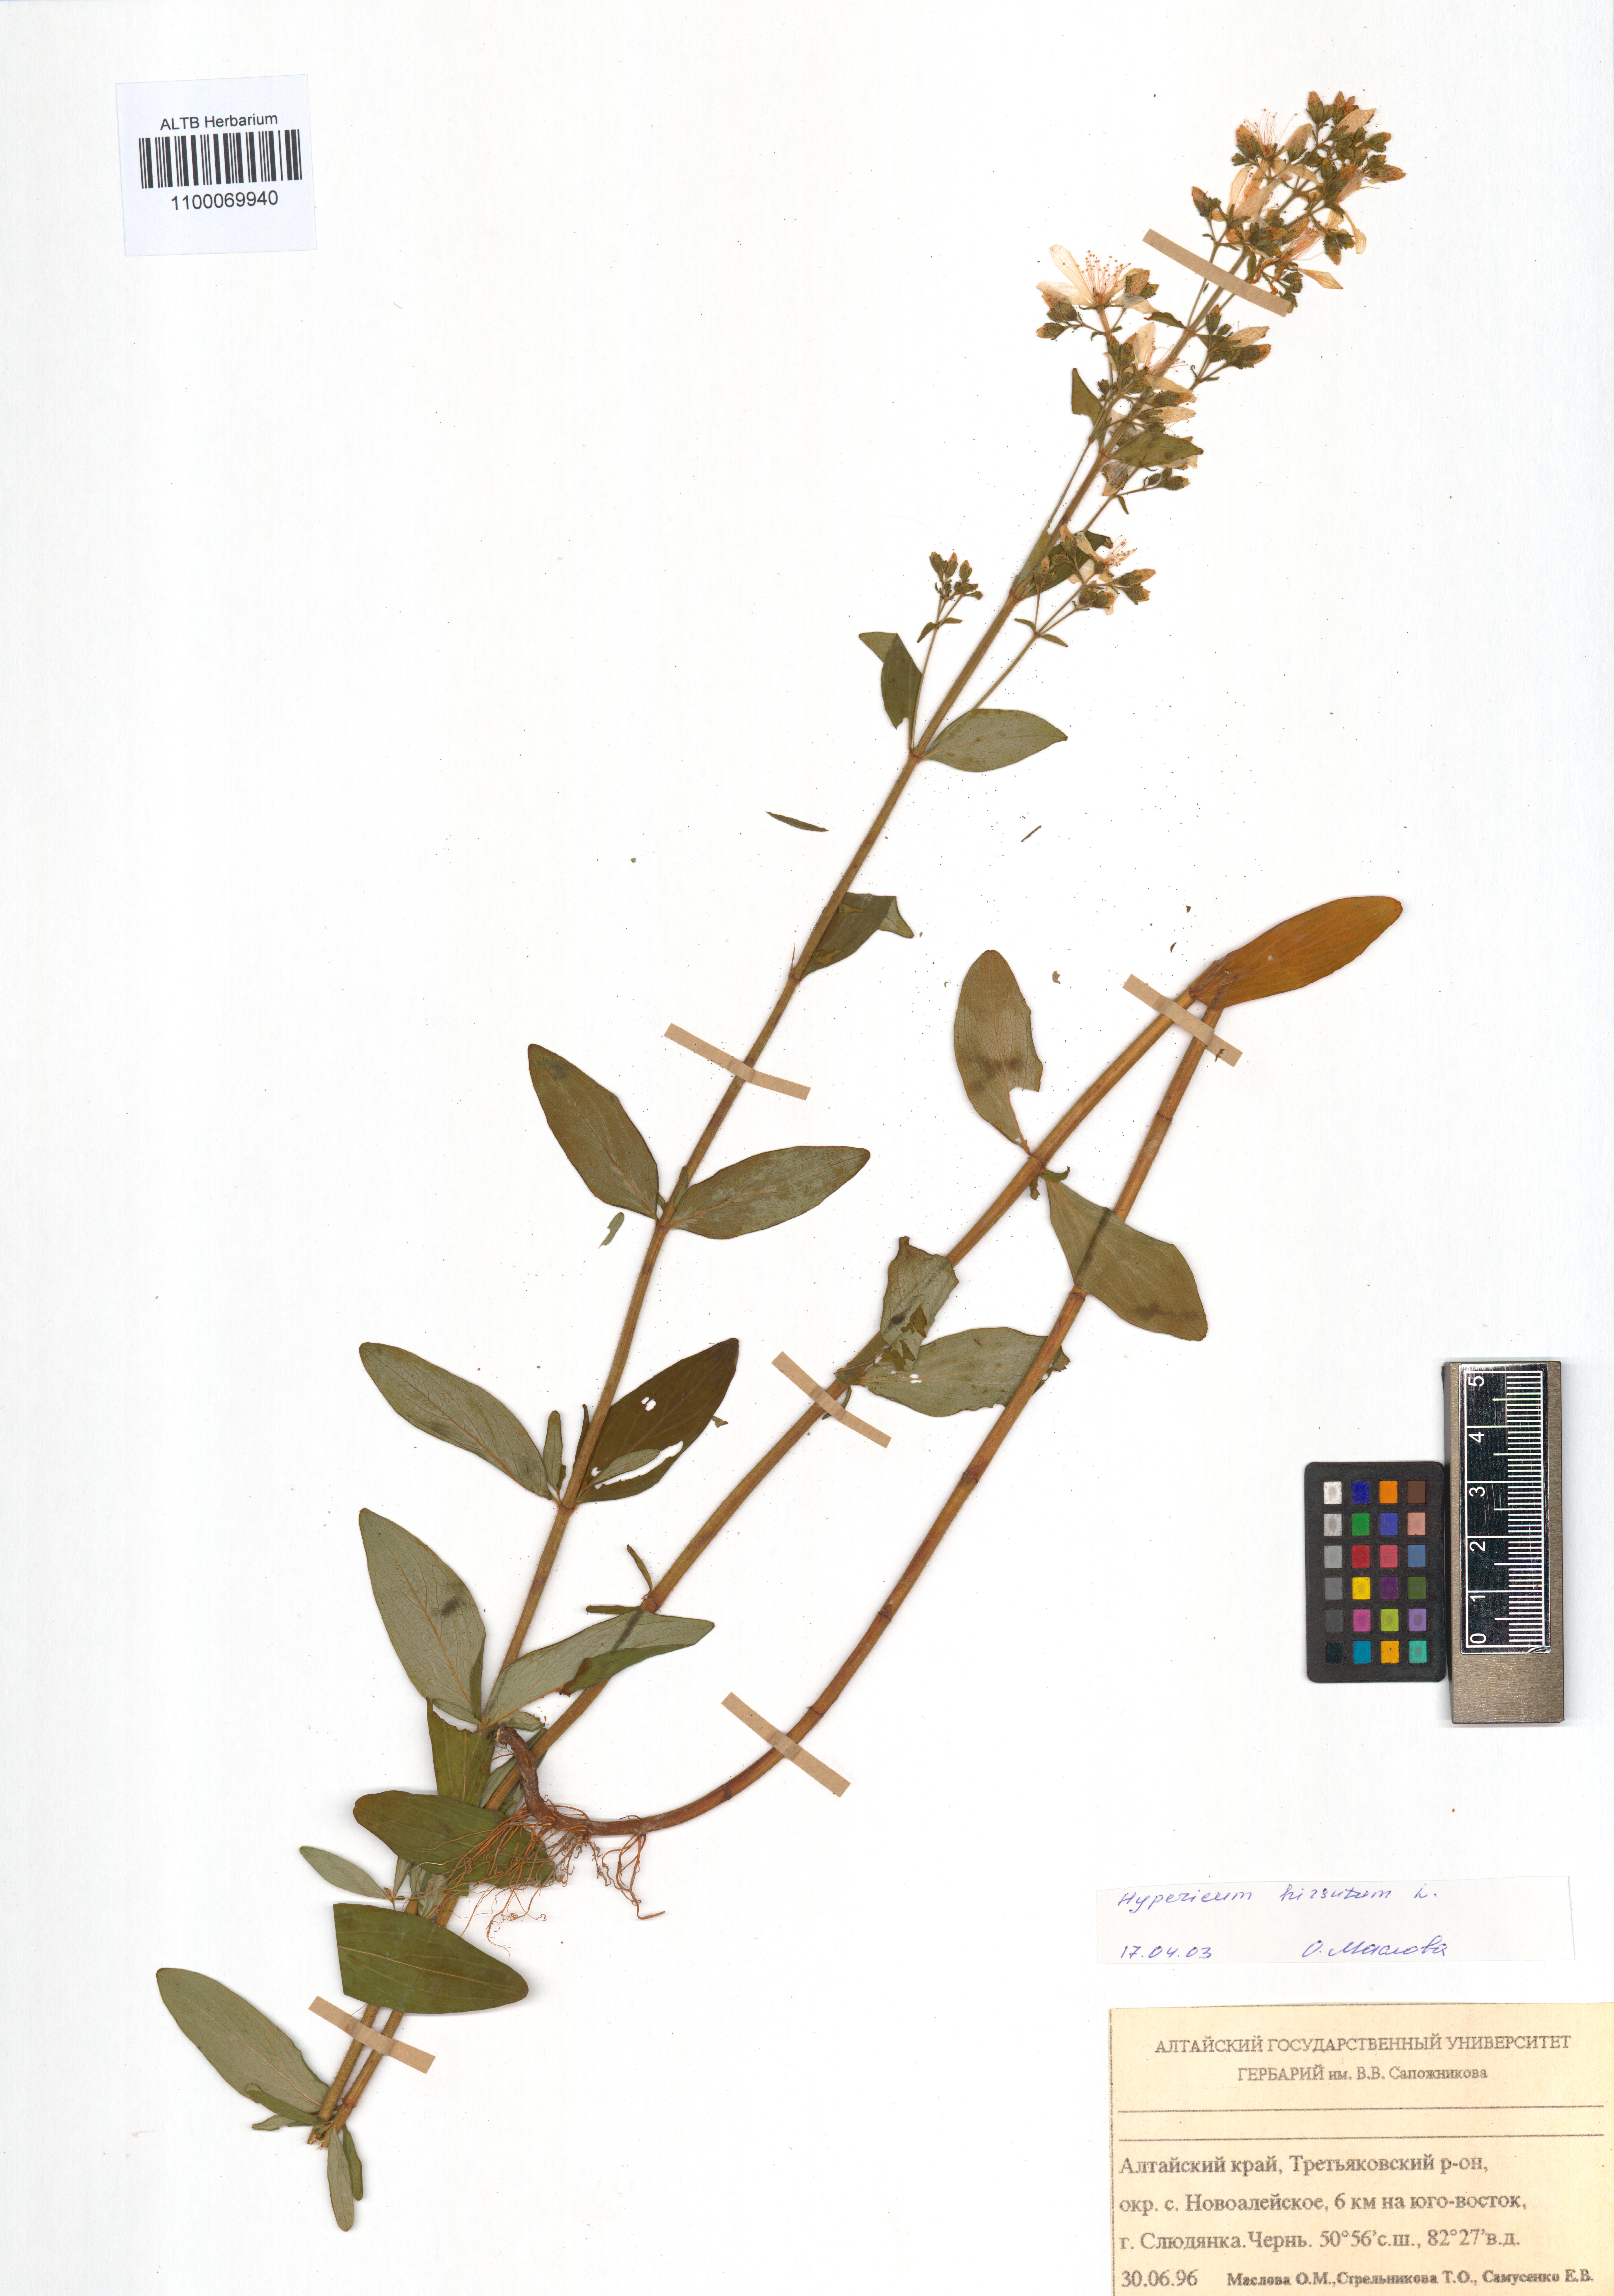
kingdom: Plantae
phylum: Tracheophyta
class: Magnoliopsida
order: Malpighiales
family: Hypericaceae
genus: Hypericum
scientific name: Hypericum hirsutum
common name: Hairy st. john's-wort
